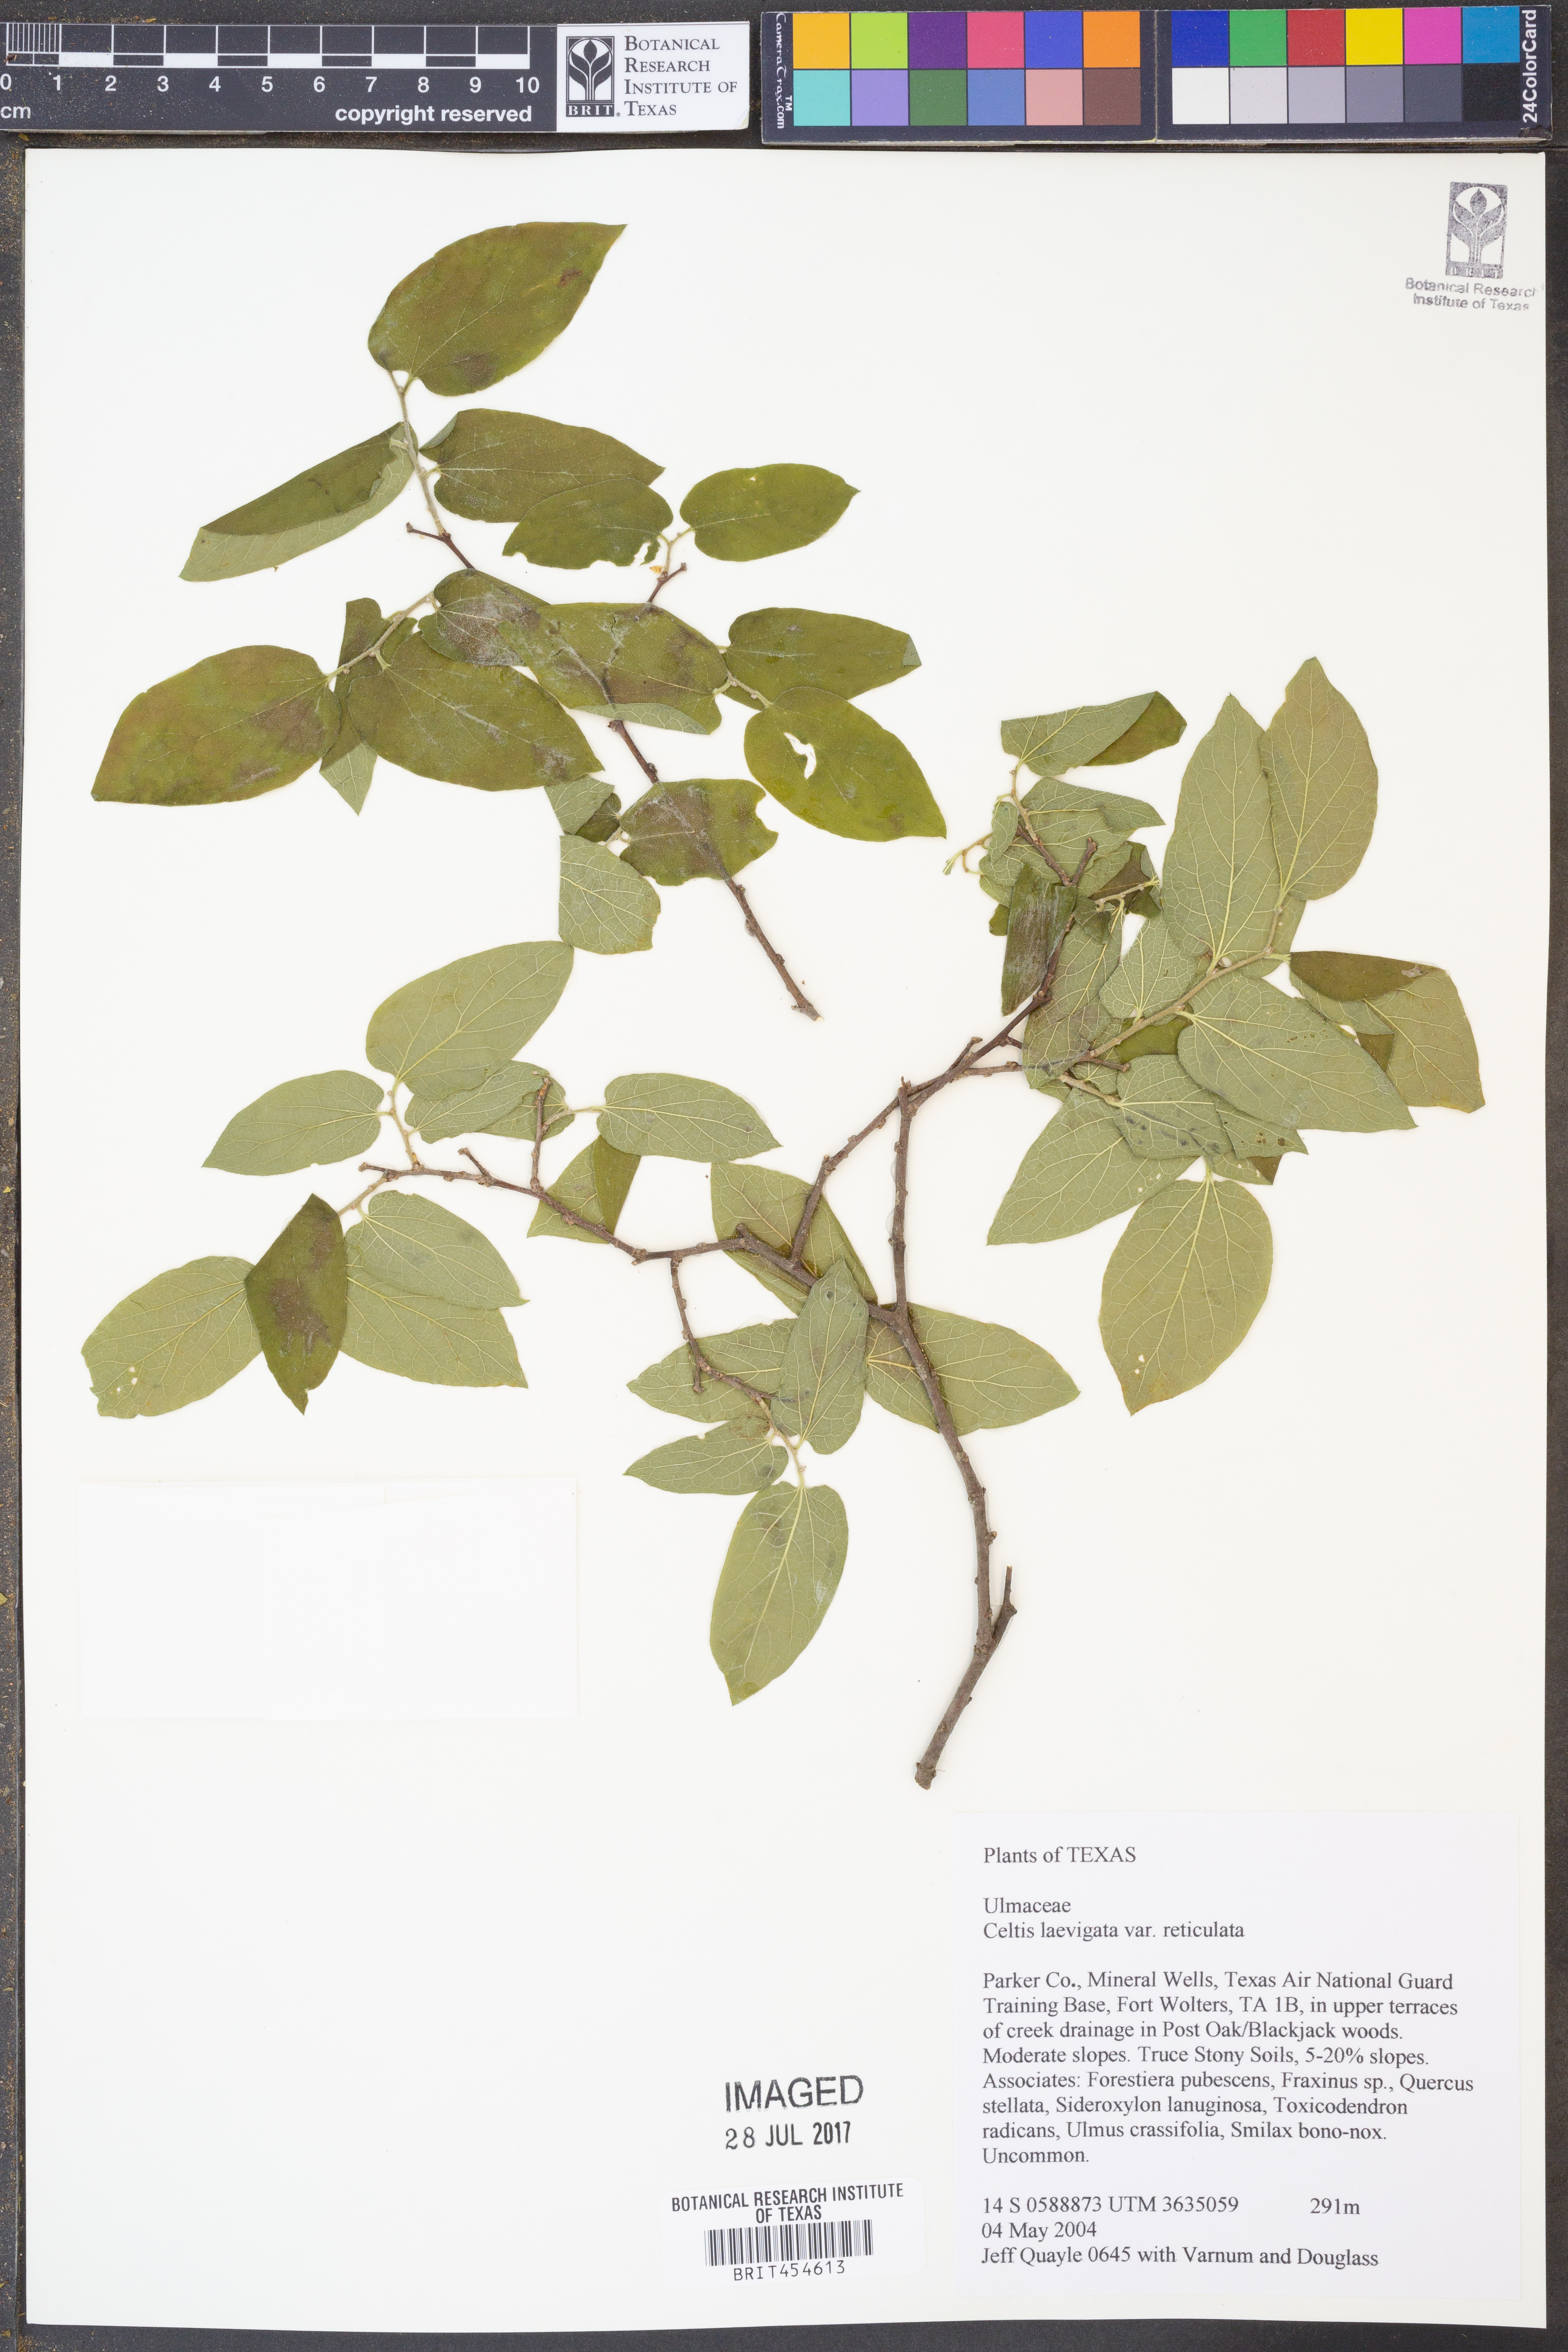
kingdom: Plantae
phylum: Tracheophyta
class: Magnoliopsida
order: Rosales
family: Cannabaceae
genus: Celtis
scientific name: Celtis reticulata
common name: Netleaf hackberry
